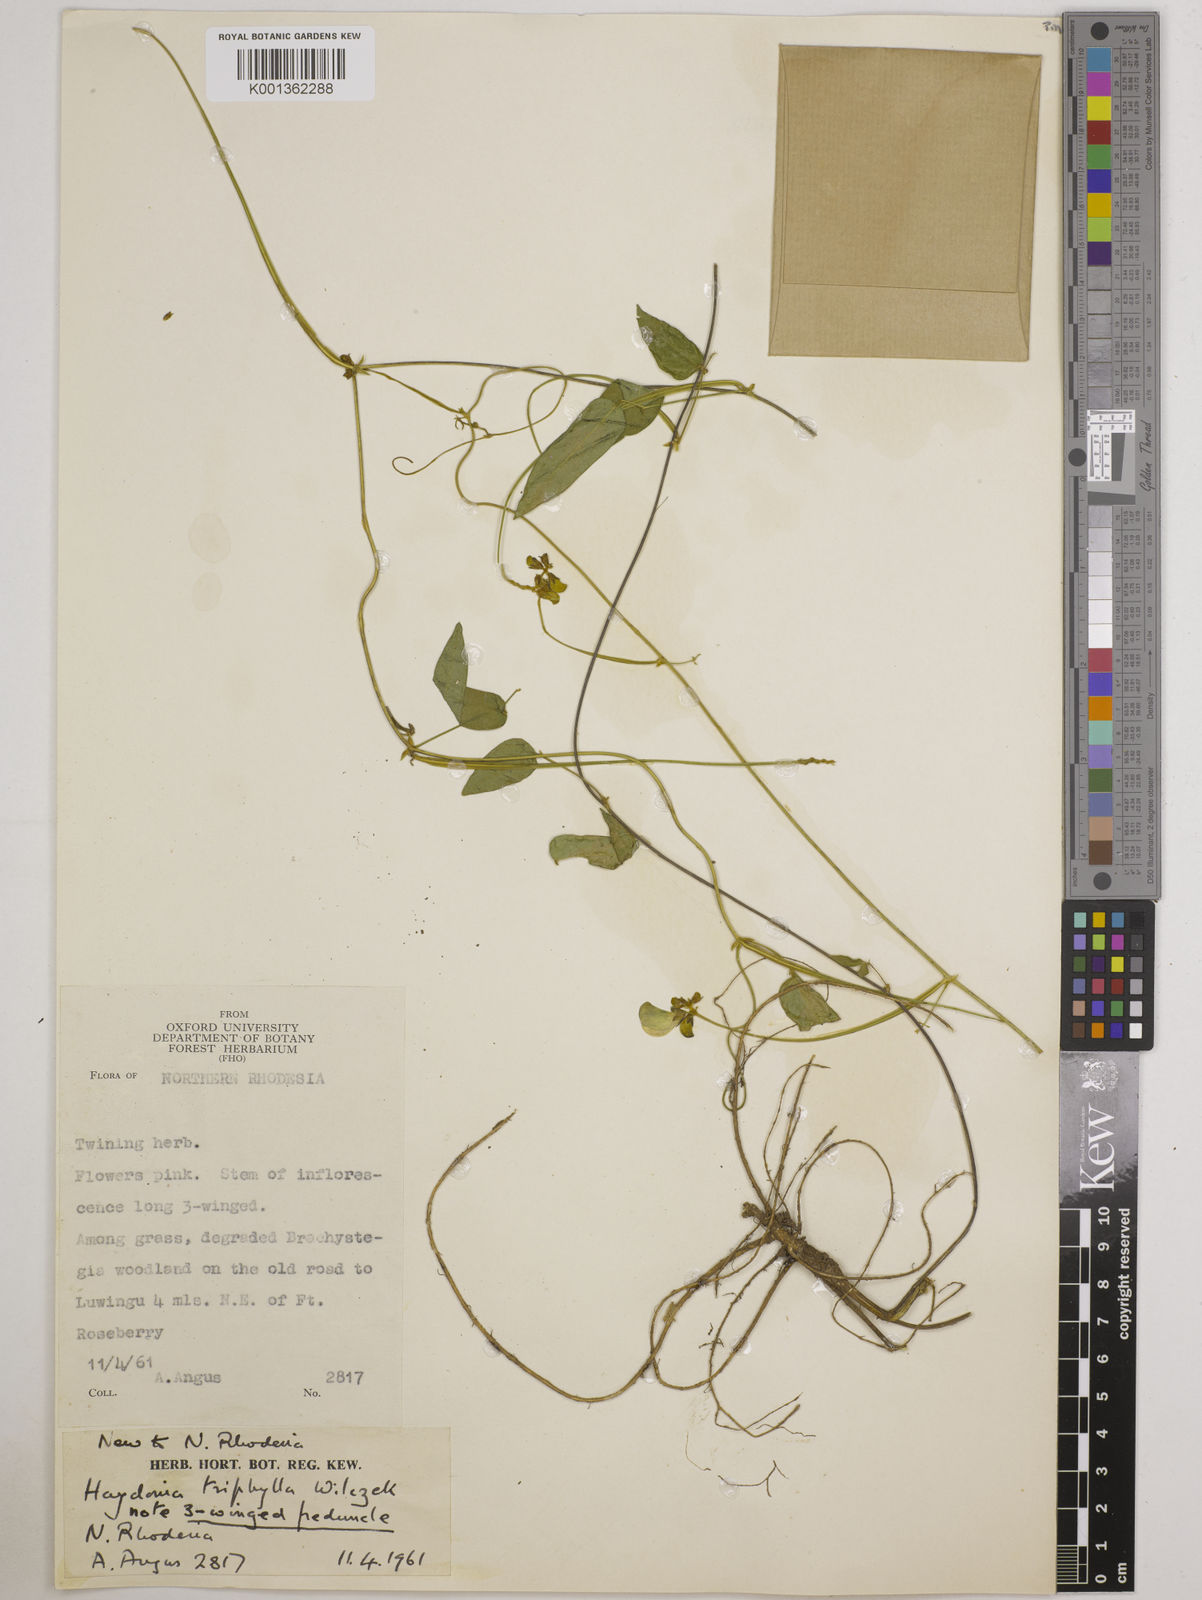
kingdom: Plantae
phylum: Tracheophyta
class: Magnoliopsida
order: Fabales
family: Fabaceae
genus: Vigna
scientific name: Vigna triphylla
